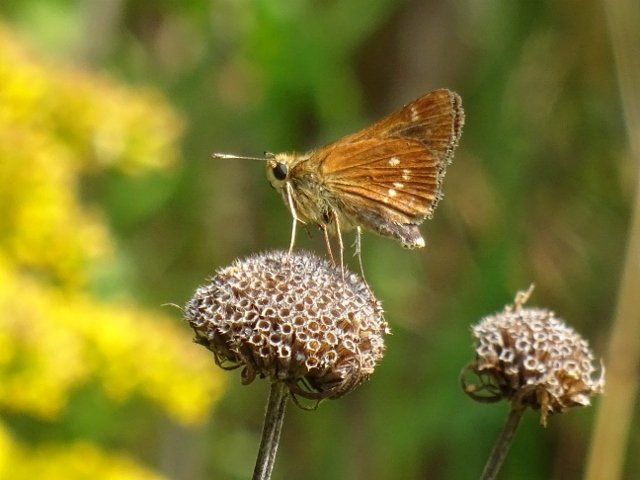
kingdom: Animalia
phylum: Arthropoda
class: Insecta
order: Lepidoptera
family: Hesperiidae
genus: Hesperia
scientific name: Hesperia leonardus
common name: Leonard's Skipper
